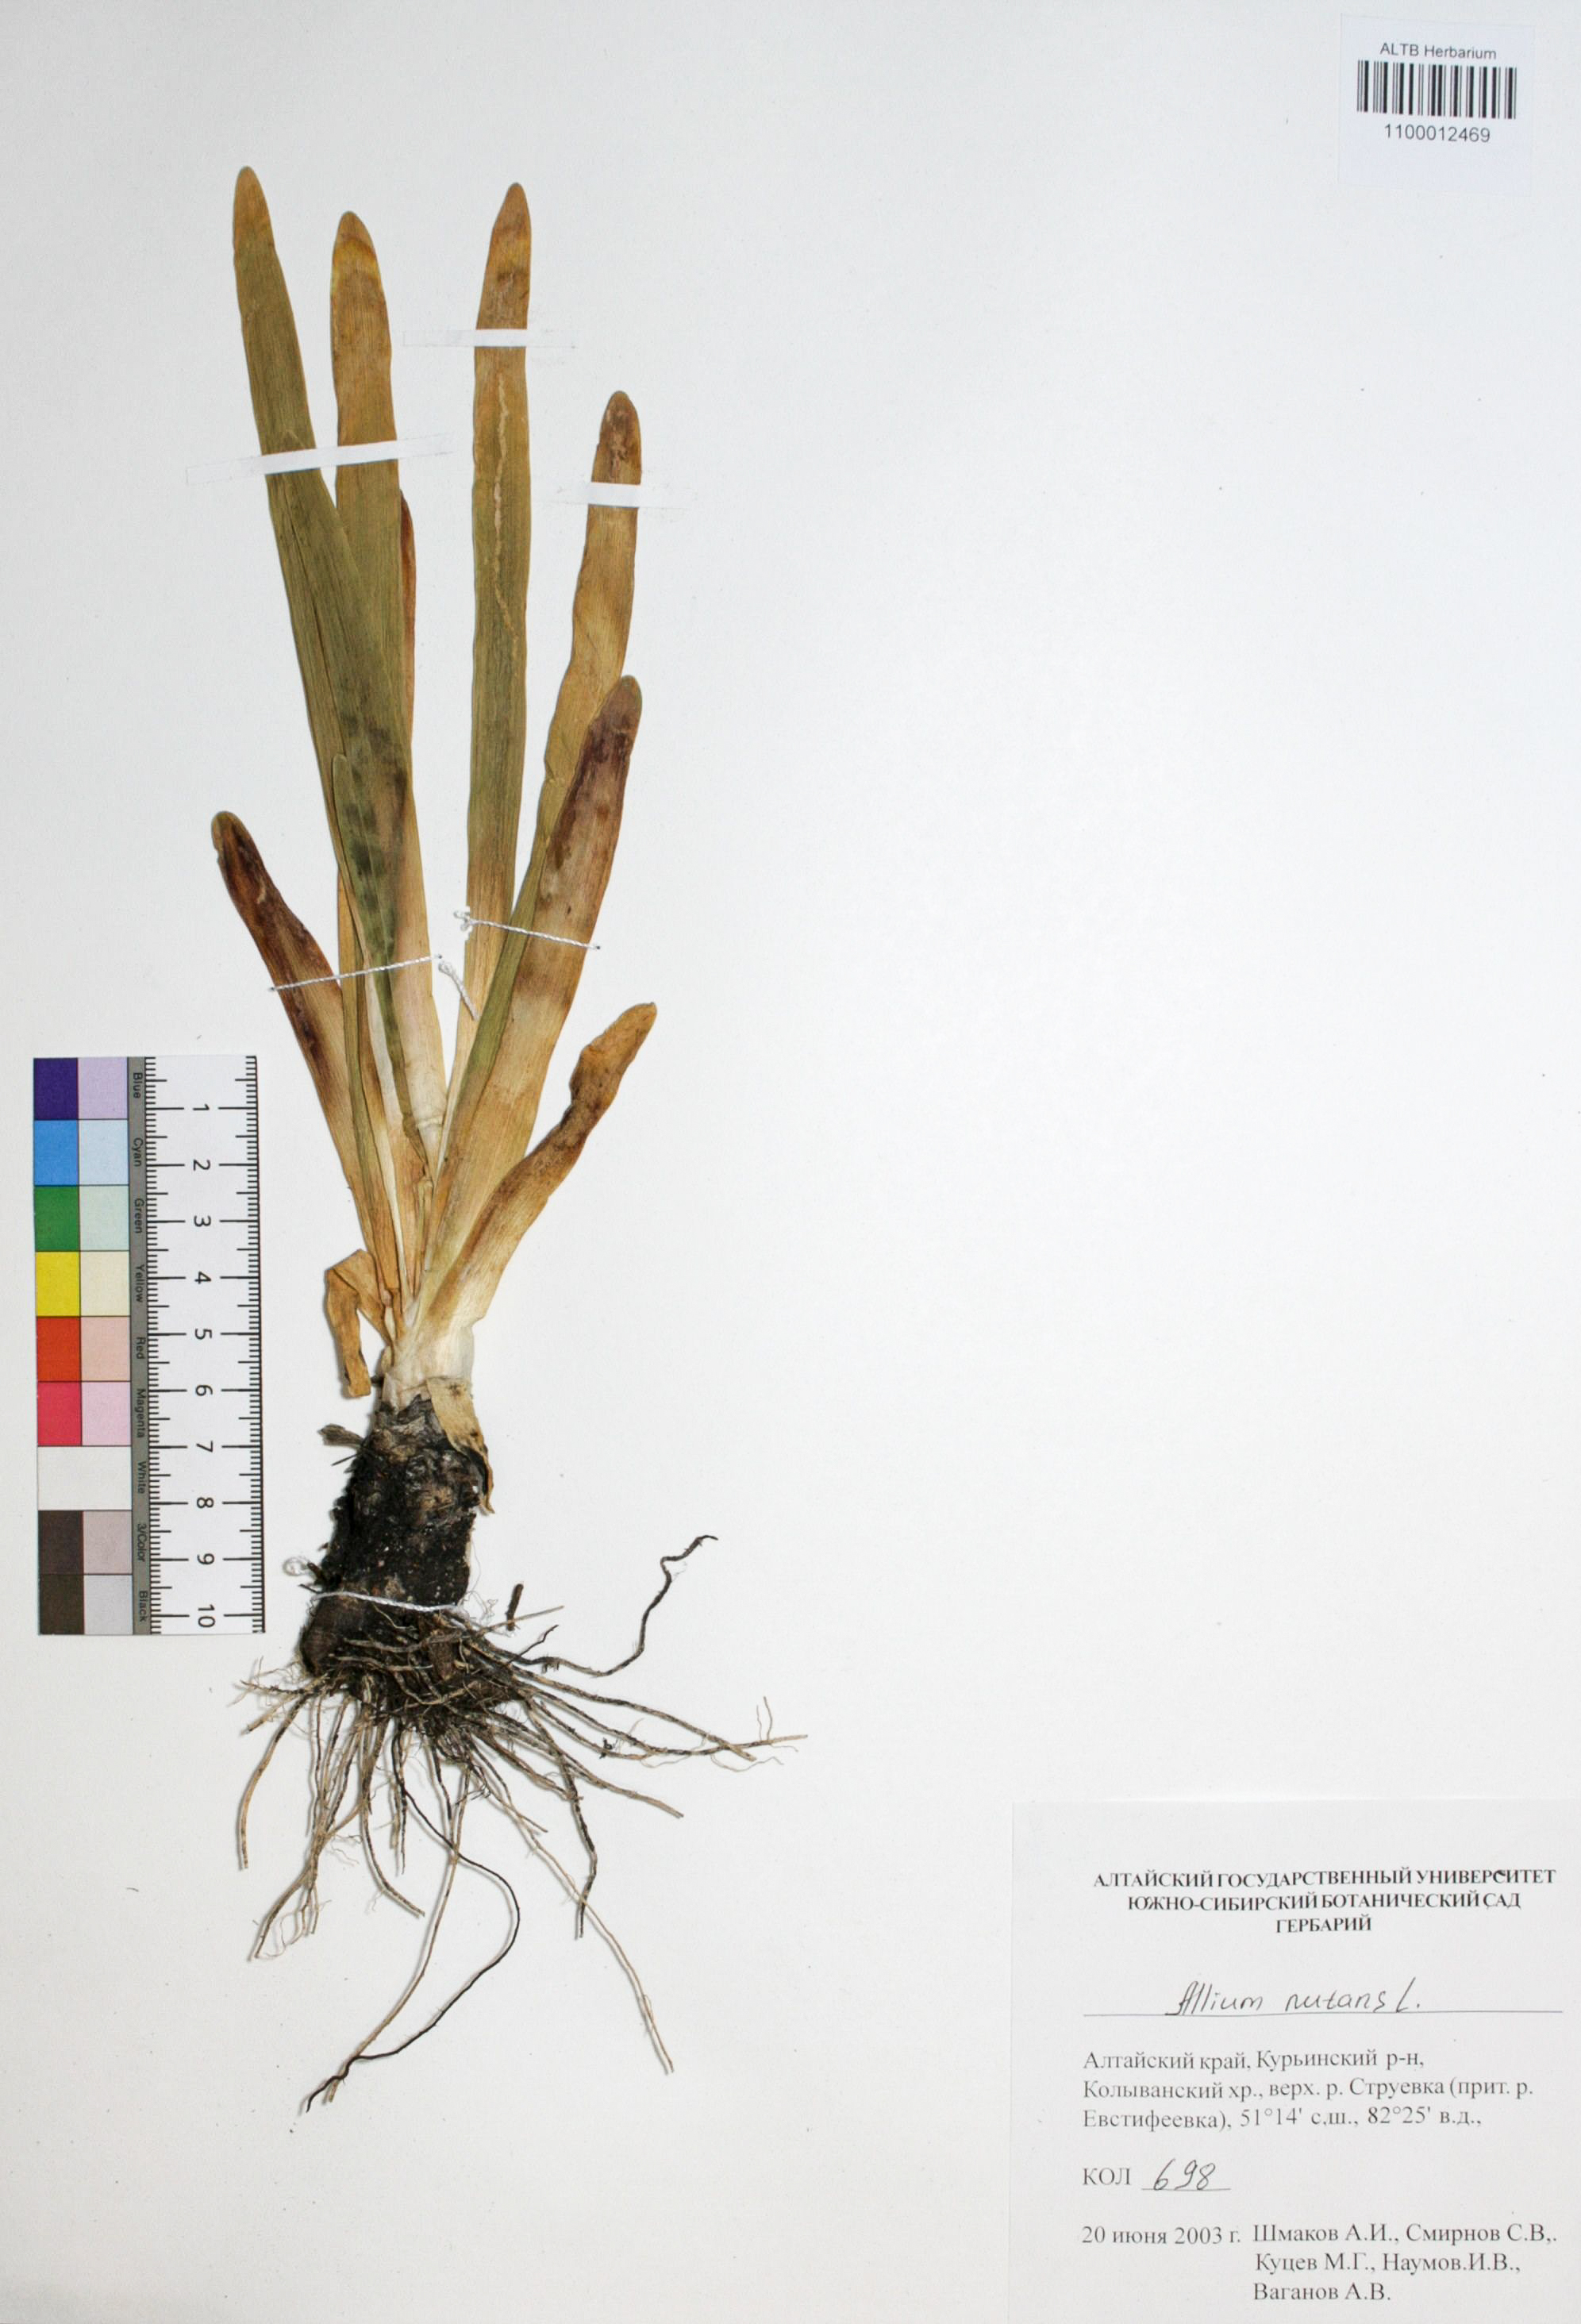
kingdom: Plantae
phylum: Tracheophyta
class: Liliopsida
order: Asparagales
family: Amaryllidaceae
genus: Allium
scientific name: Allium nutans
